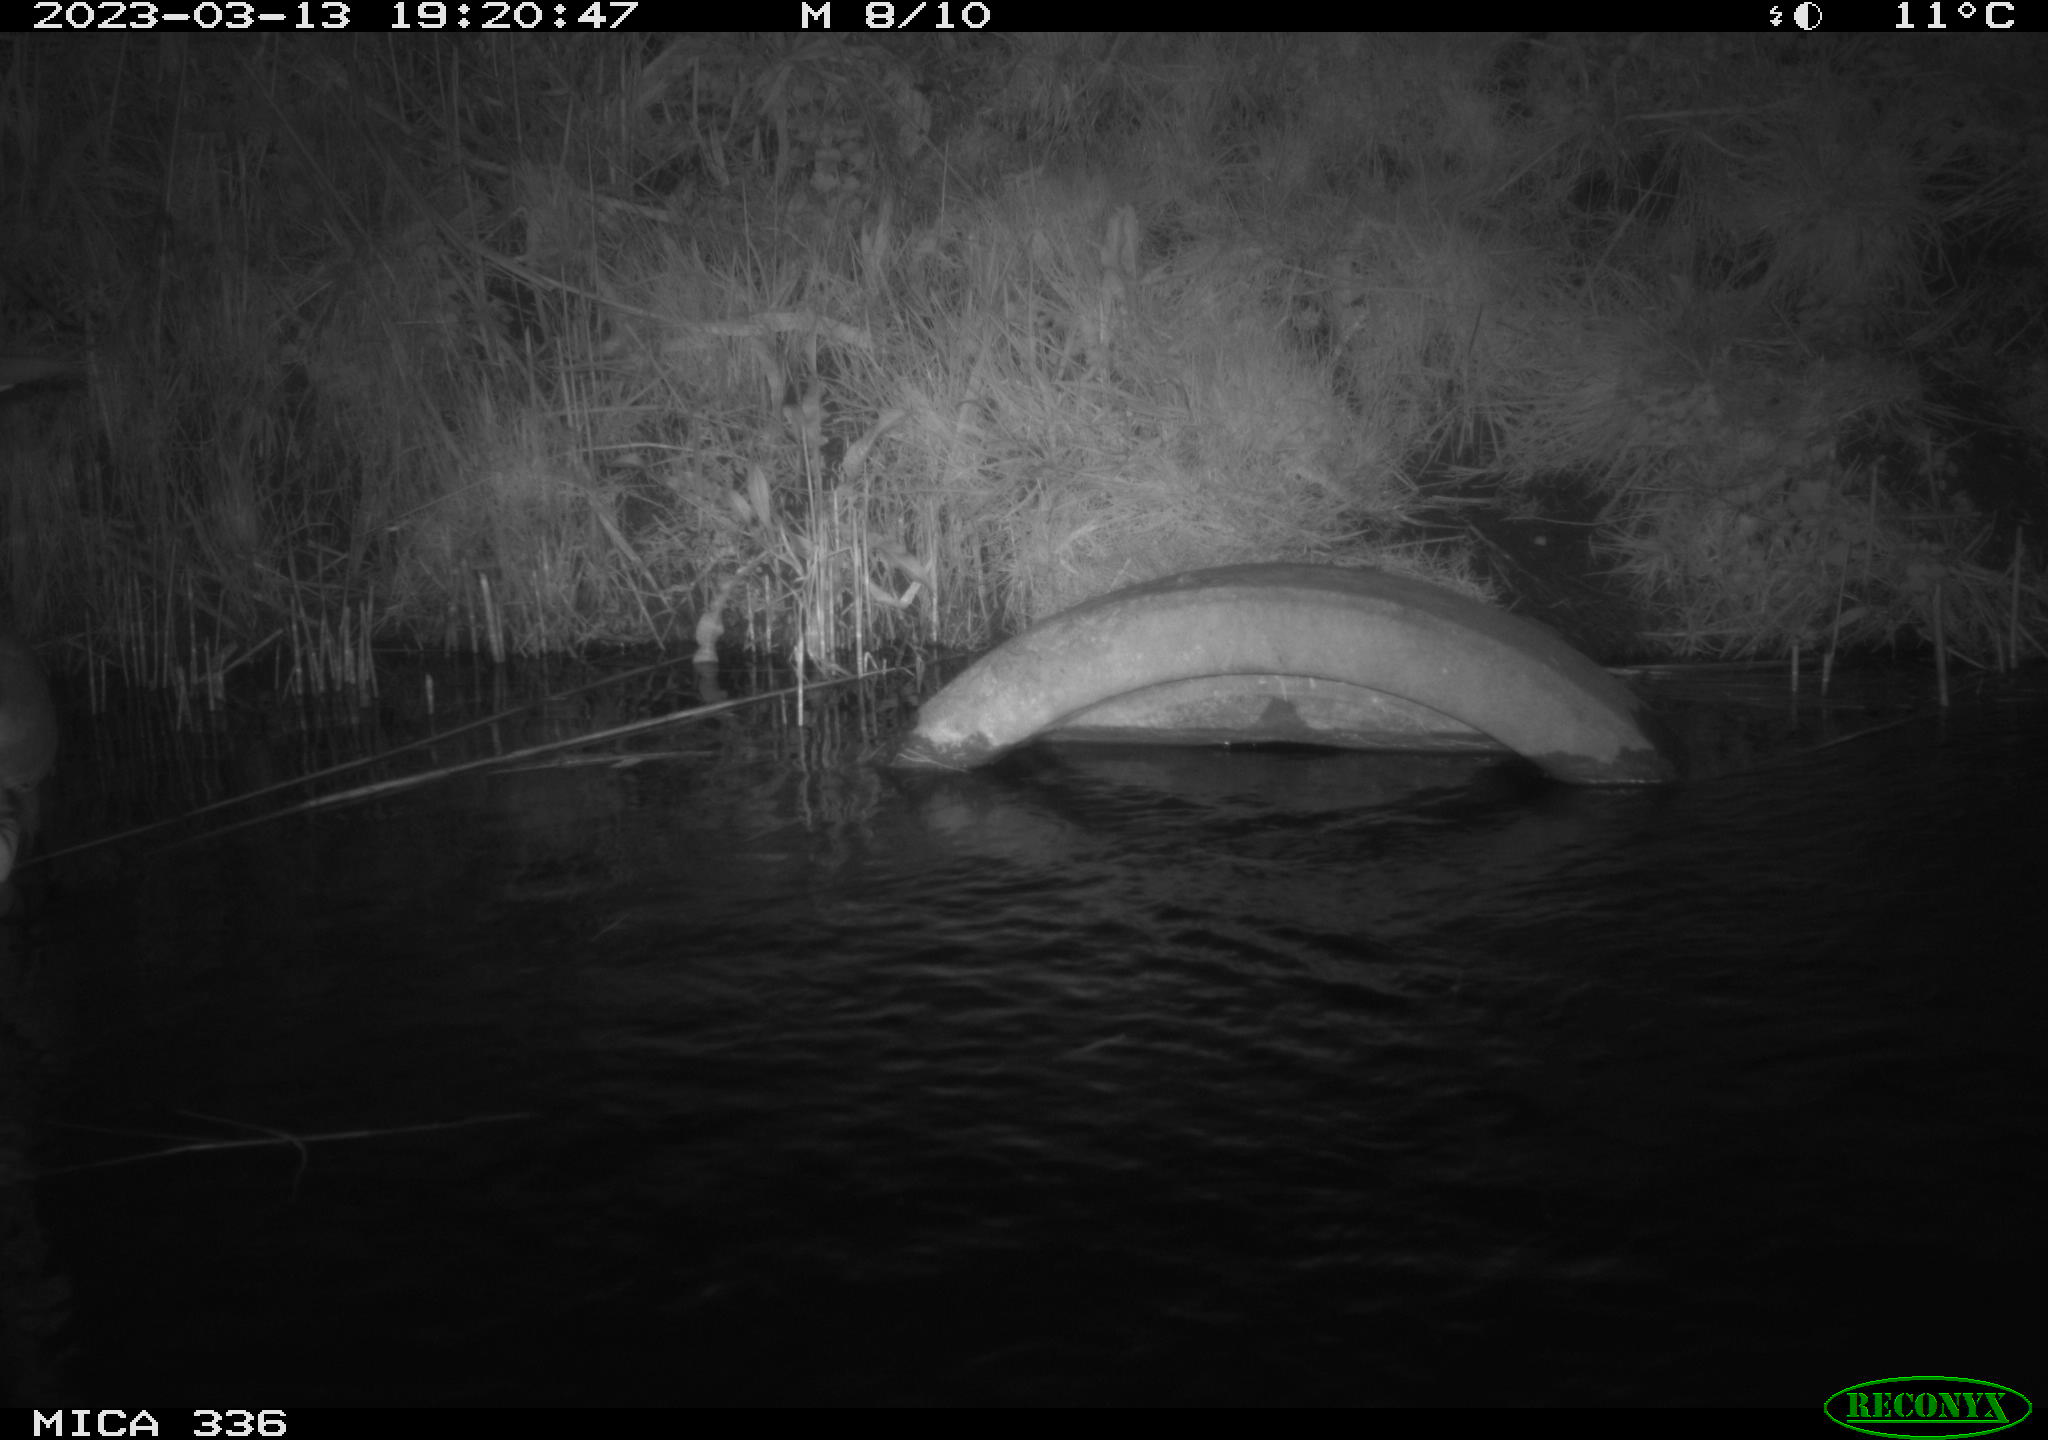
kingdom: Animalia
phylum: Chordata
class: Aves
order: Pelecaniformes
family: Ardeidae
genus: Ardea
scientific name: Ardea cinerea
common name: Grey heron
